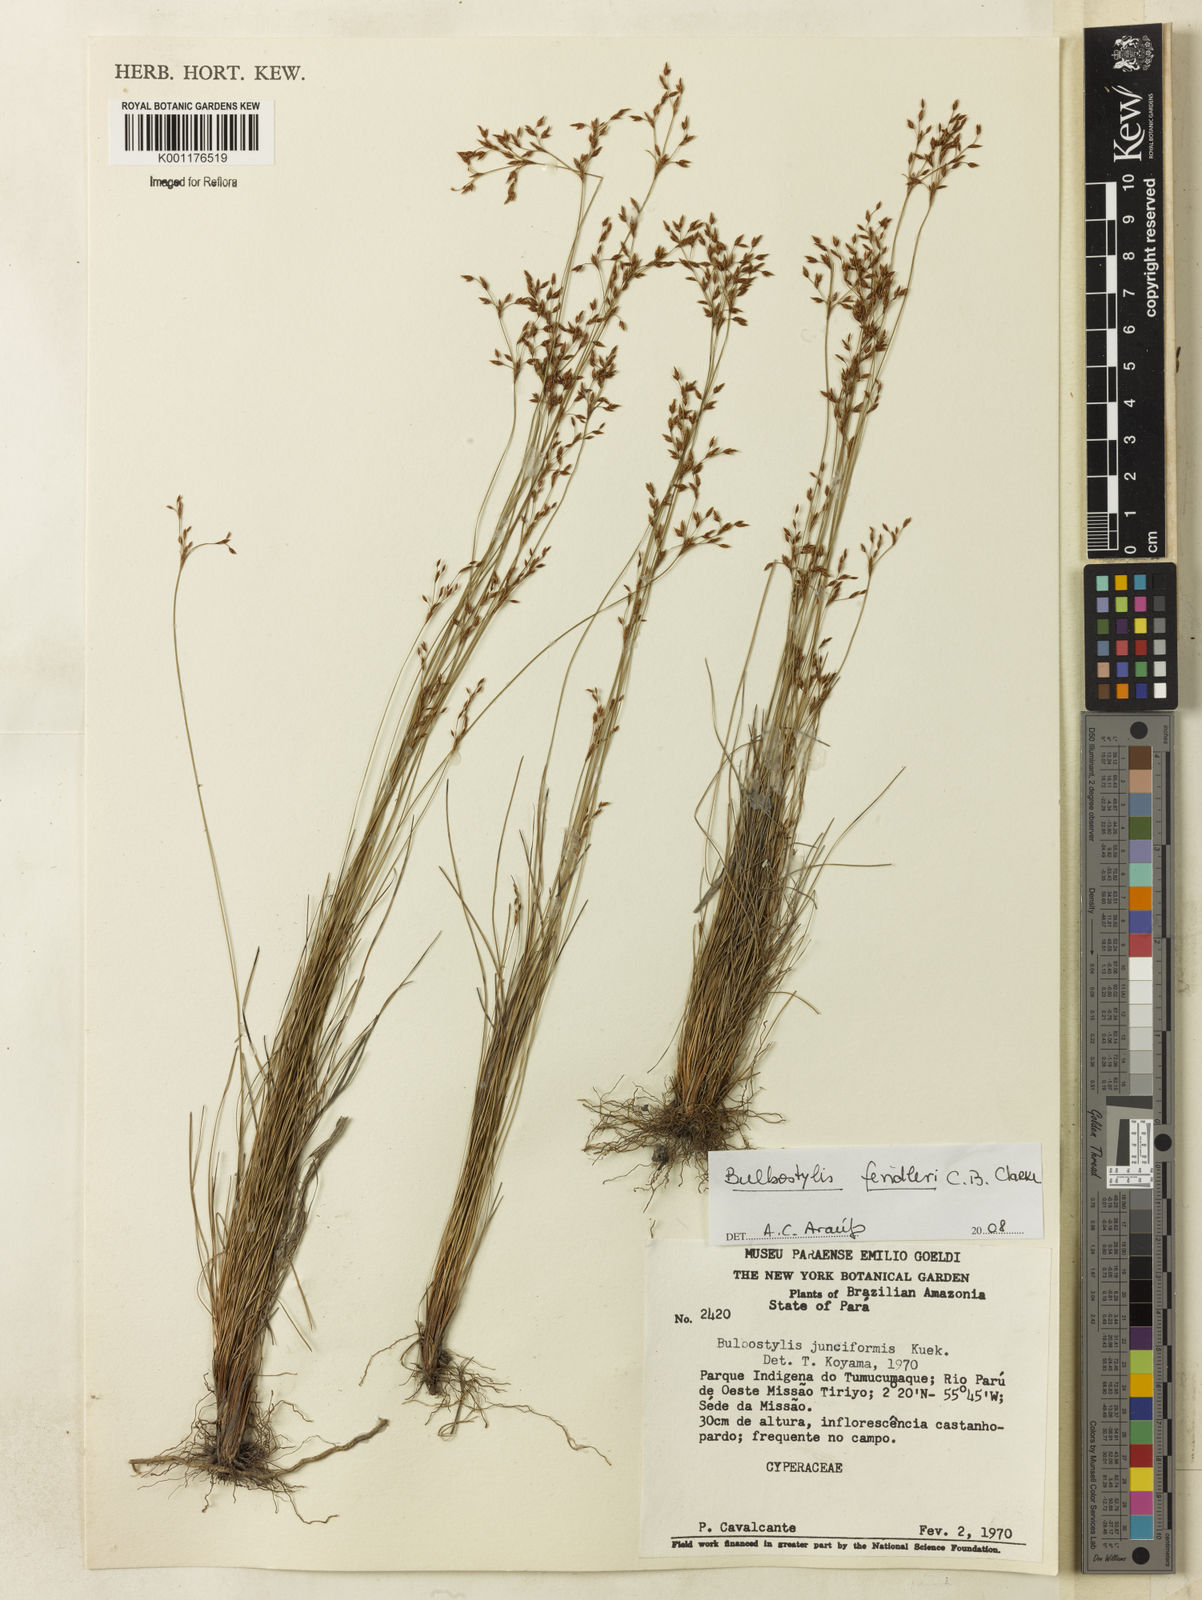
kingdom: Plantae
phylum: Tracheophyta
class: Liliopsida
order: Poales
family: Cyperaceae
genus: Bulbostylis
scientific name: Bulbostylis juncoides
